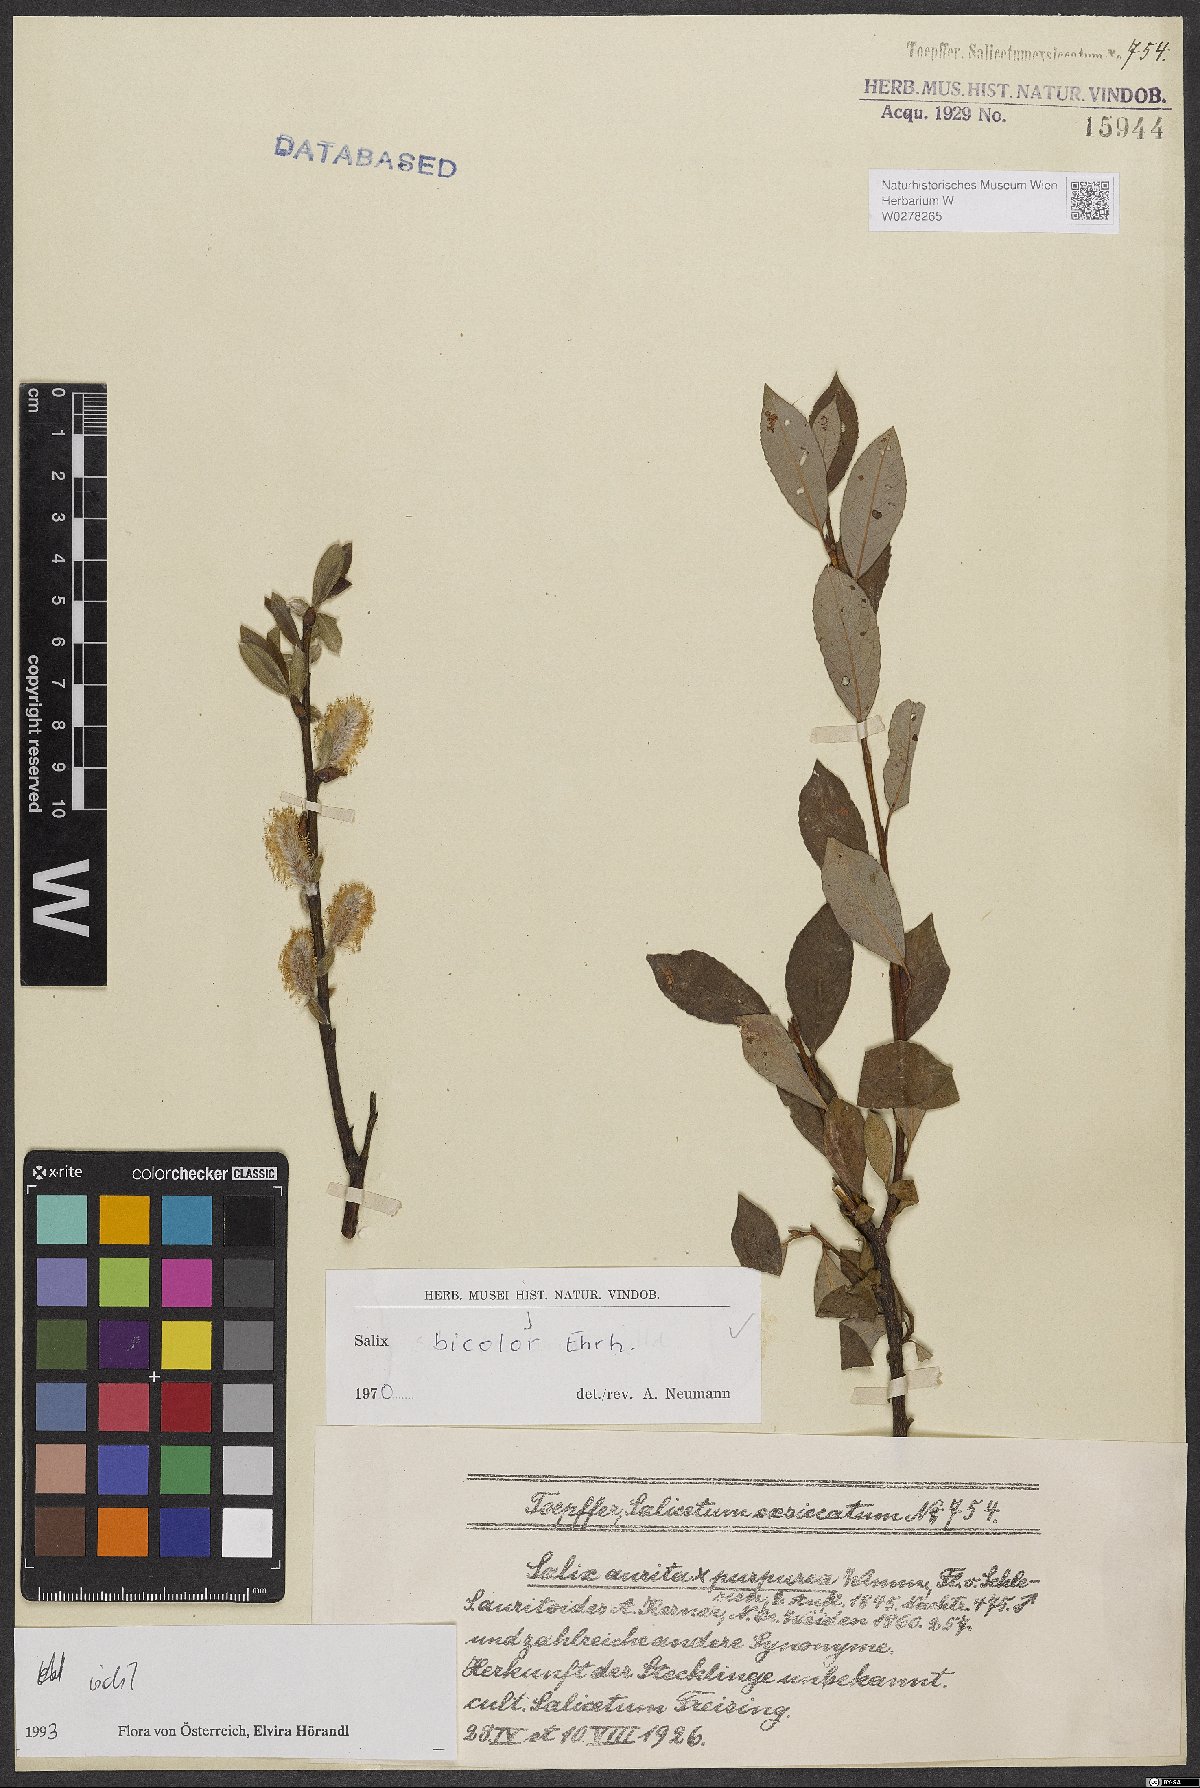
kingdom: Plantae
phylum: Tracheophyta
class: Magnoliopsida
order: Malpighiales
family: Salicaceae
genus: Salix
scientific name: Salix bicolor
